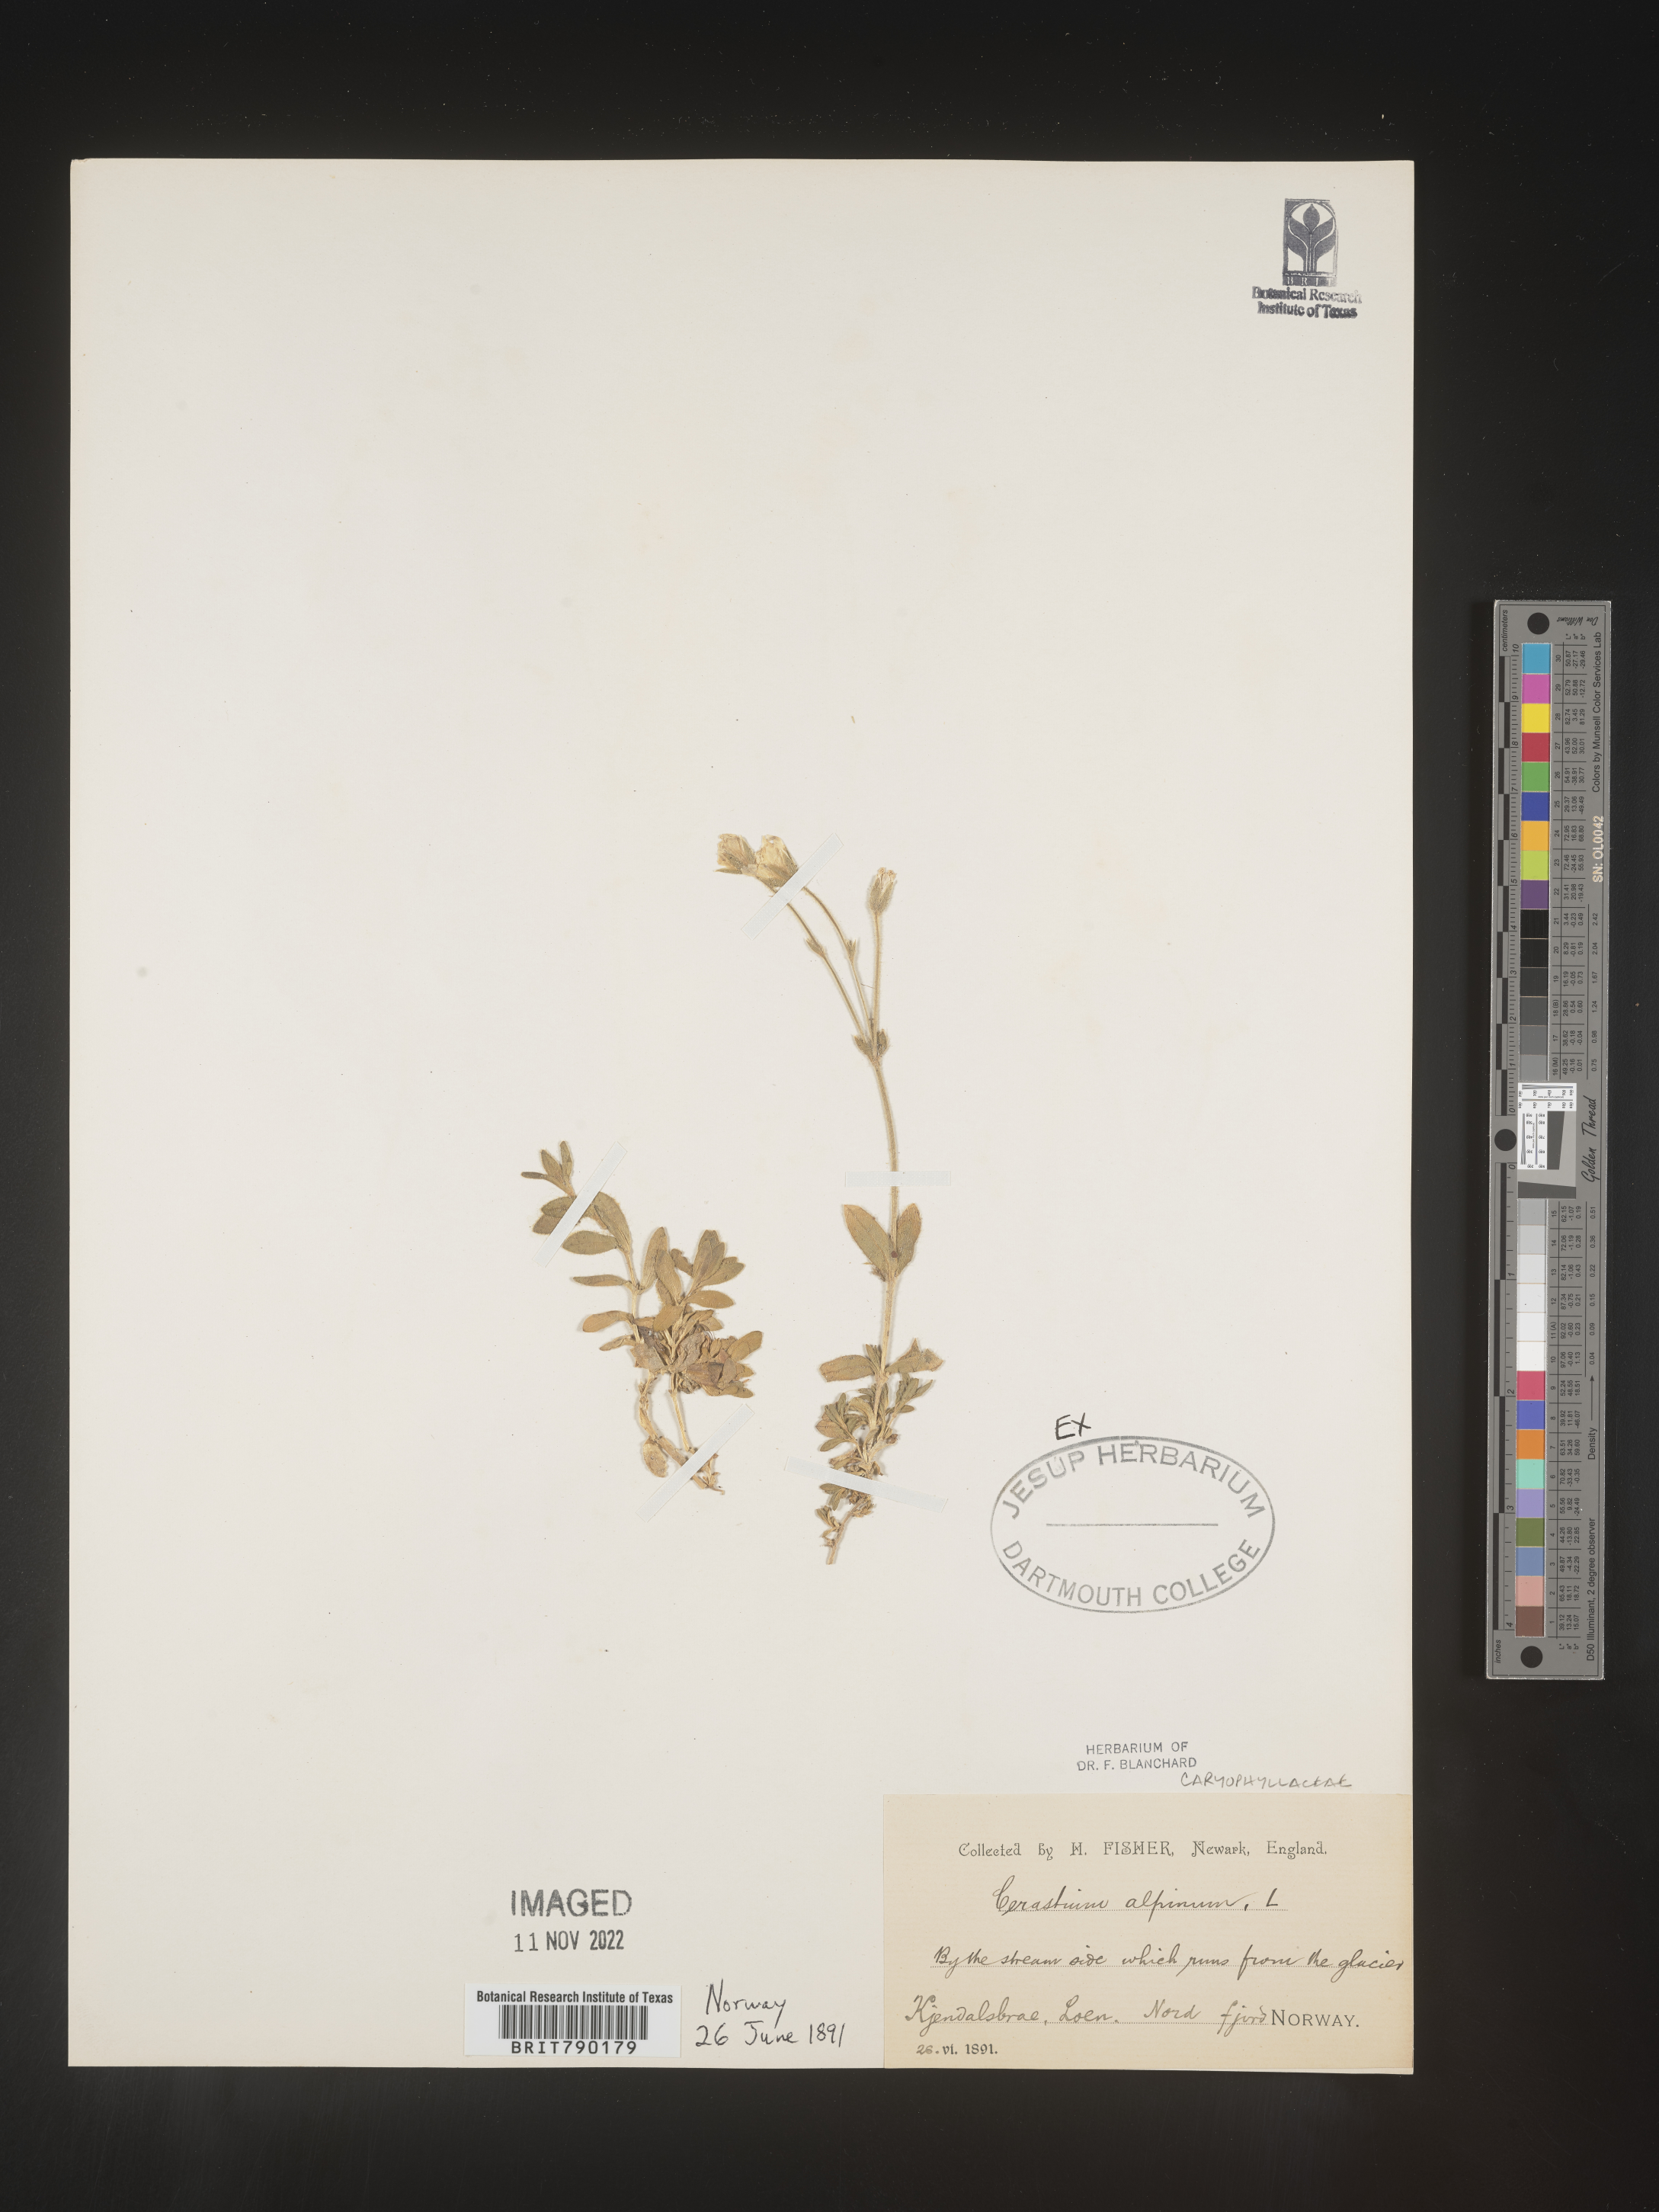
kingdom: Plantae
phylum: Tracheophyta
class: Magnoliopsida
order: Caryophyllales
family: Caryophyllaceae
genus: Cerastium
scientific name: Cerastium
